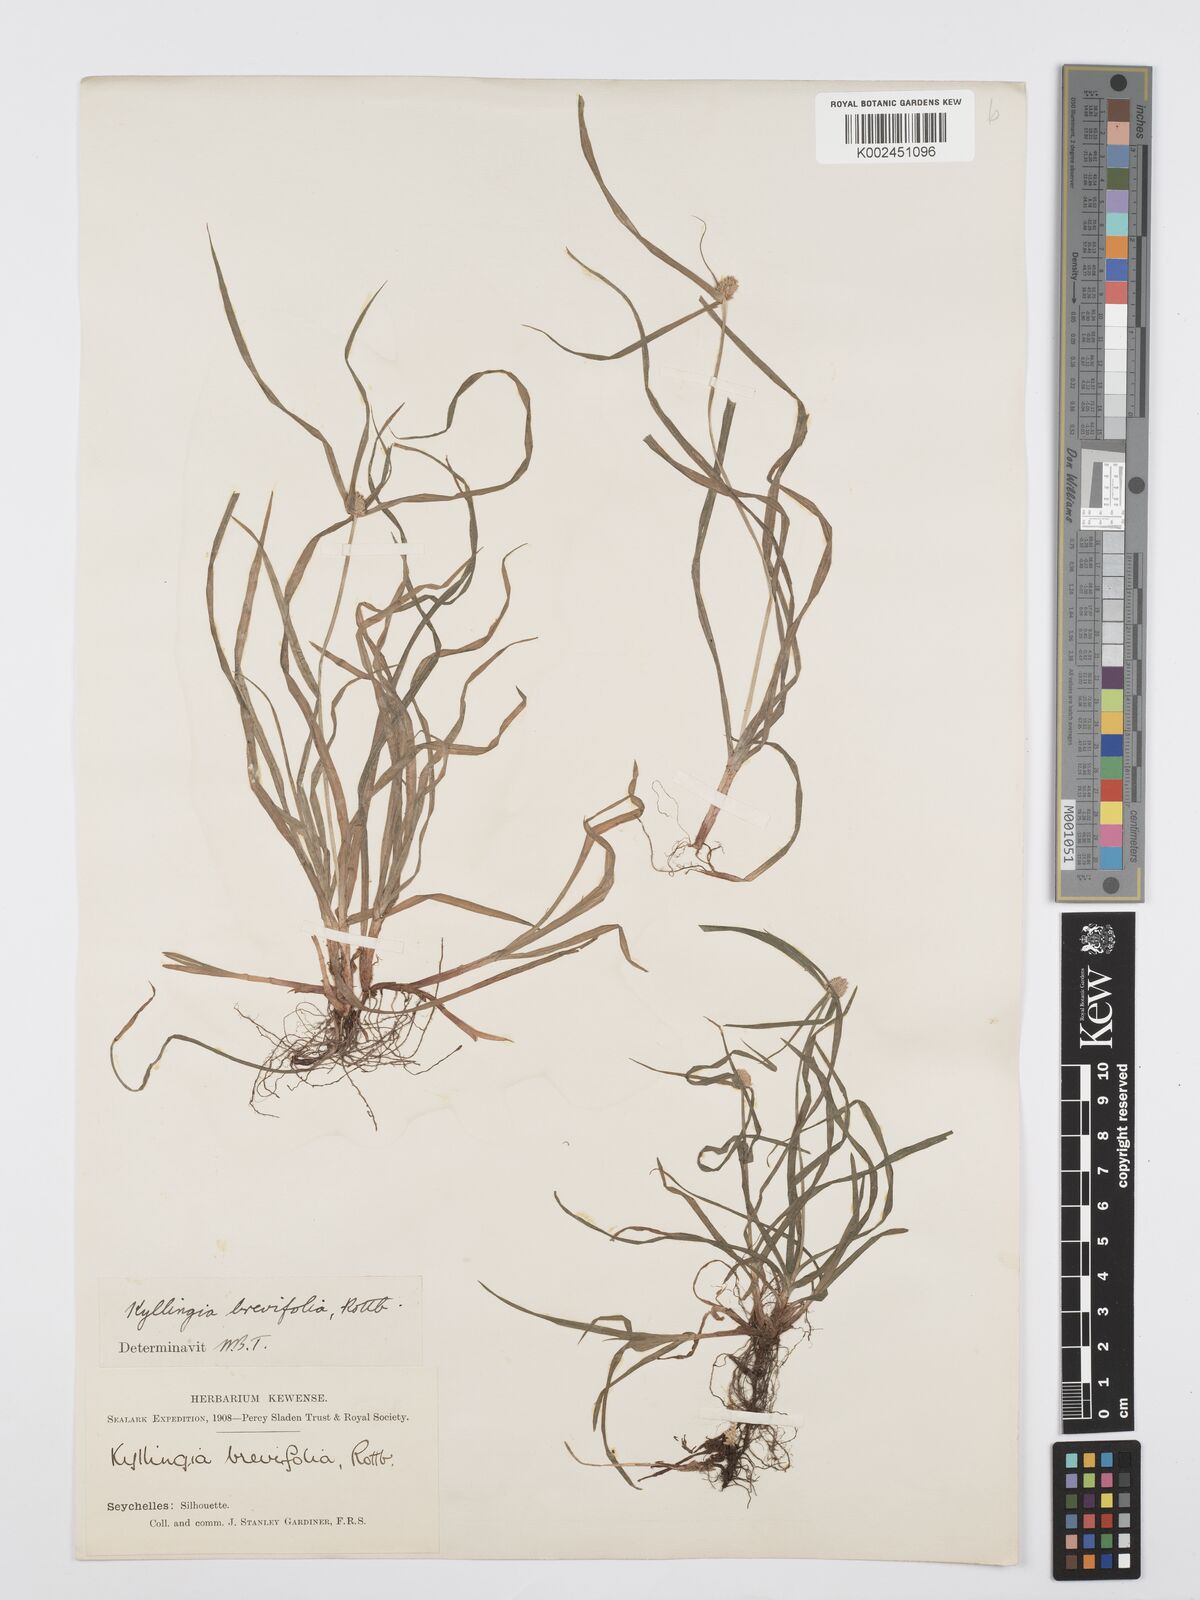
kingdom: Plantae
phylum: Tracheophyta
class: Liliopsida
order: Poales
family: Cyperaceae
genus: Cyperus
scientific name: Cyperus nemoralis
